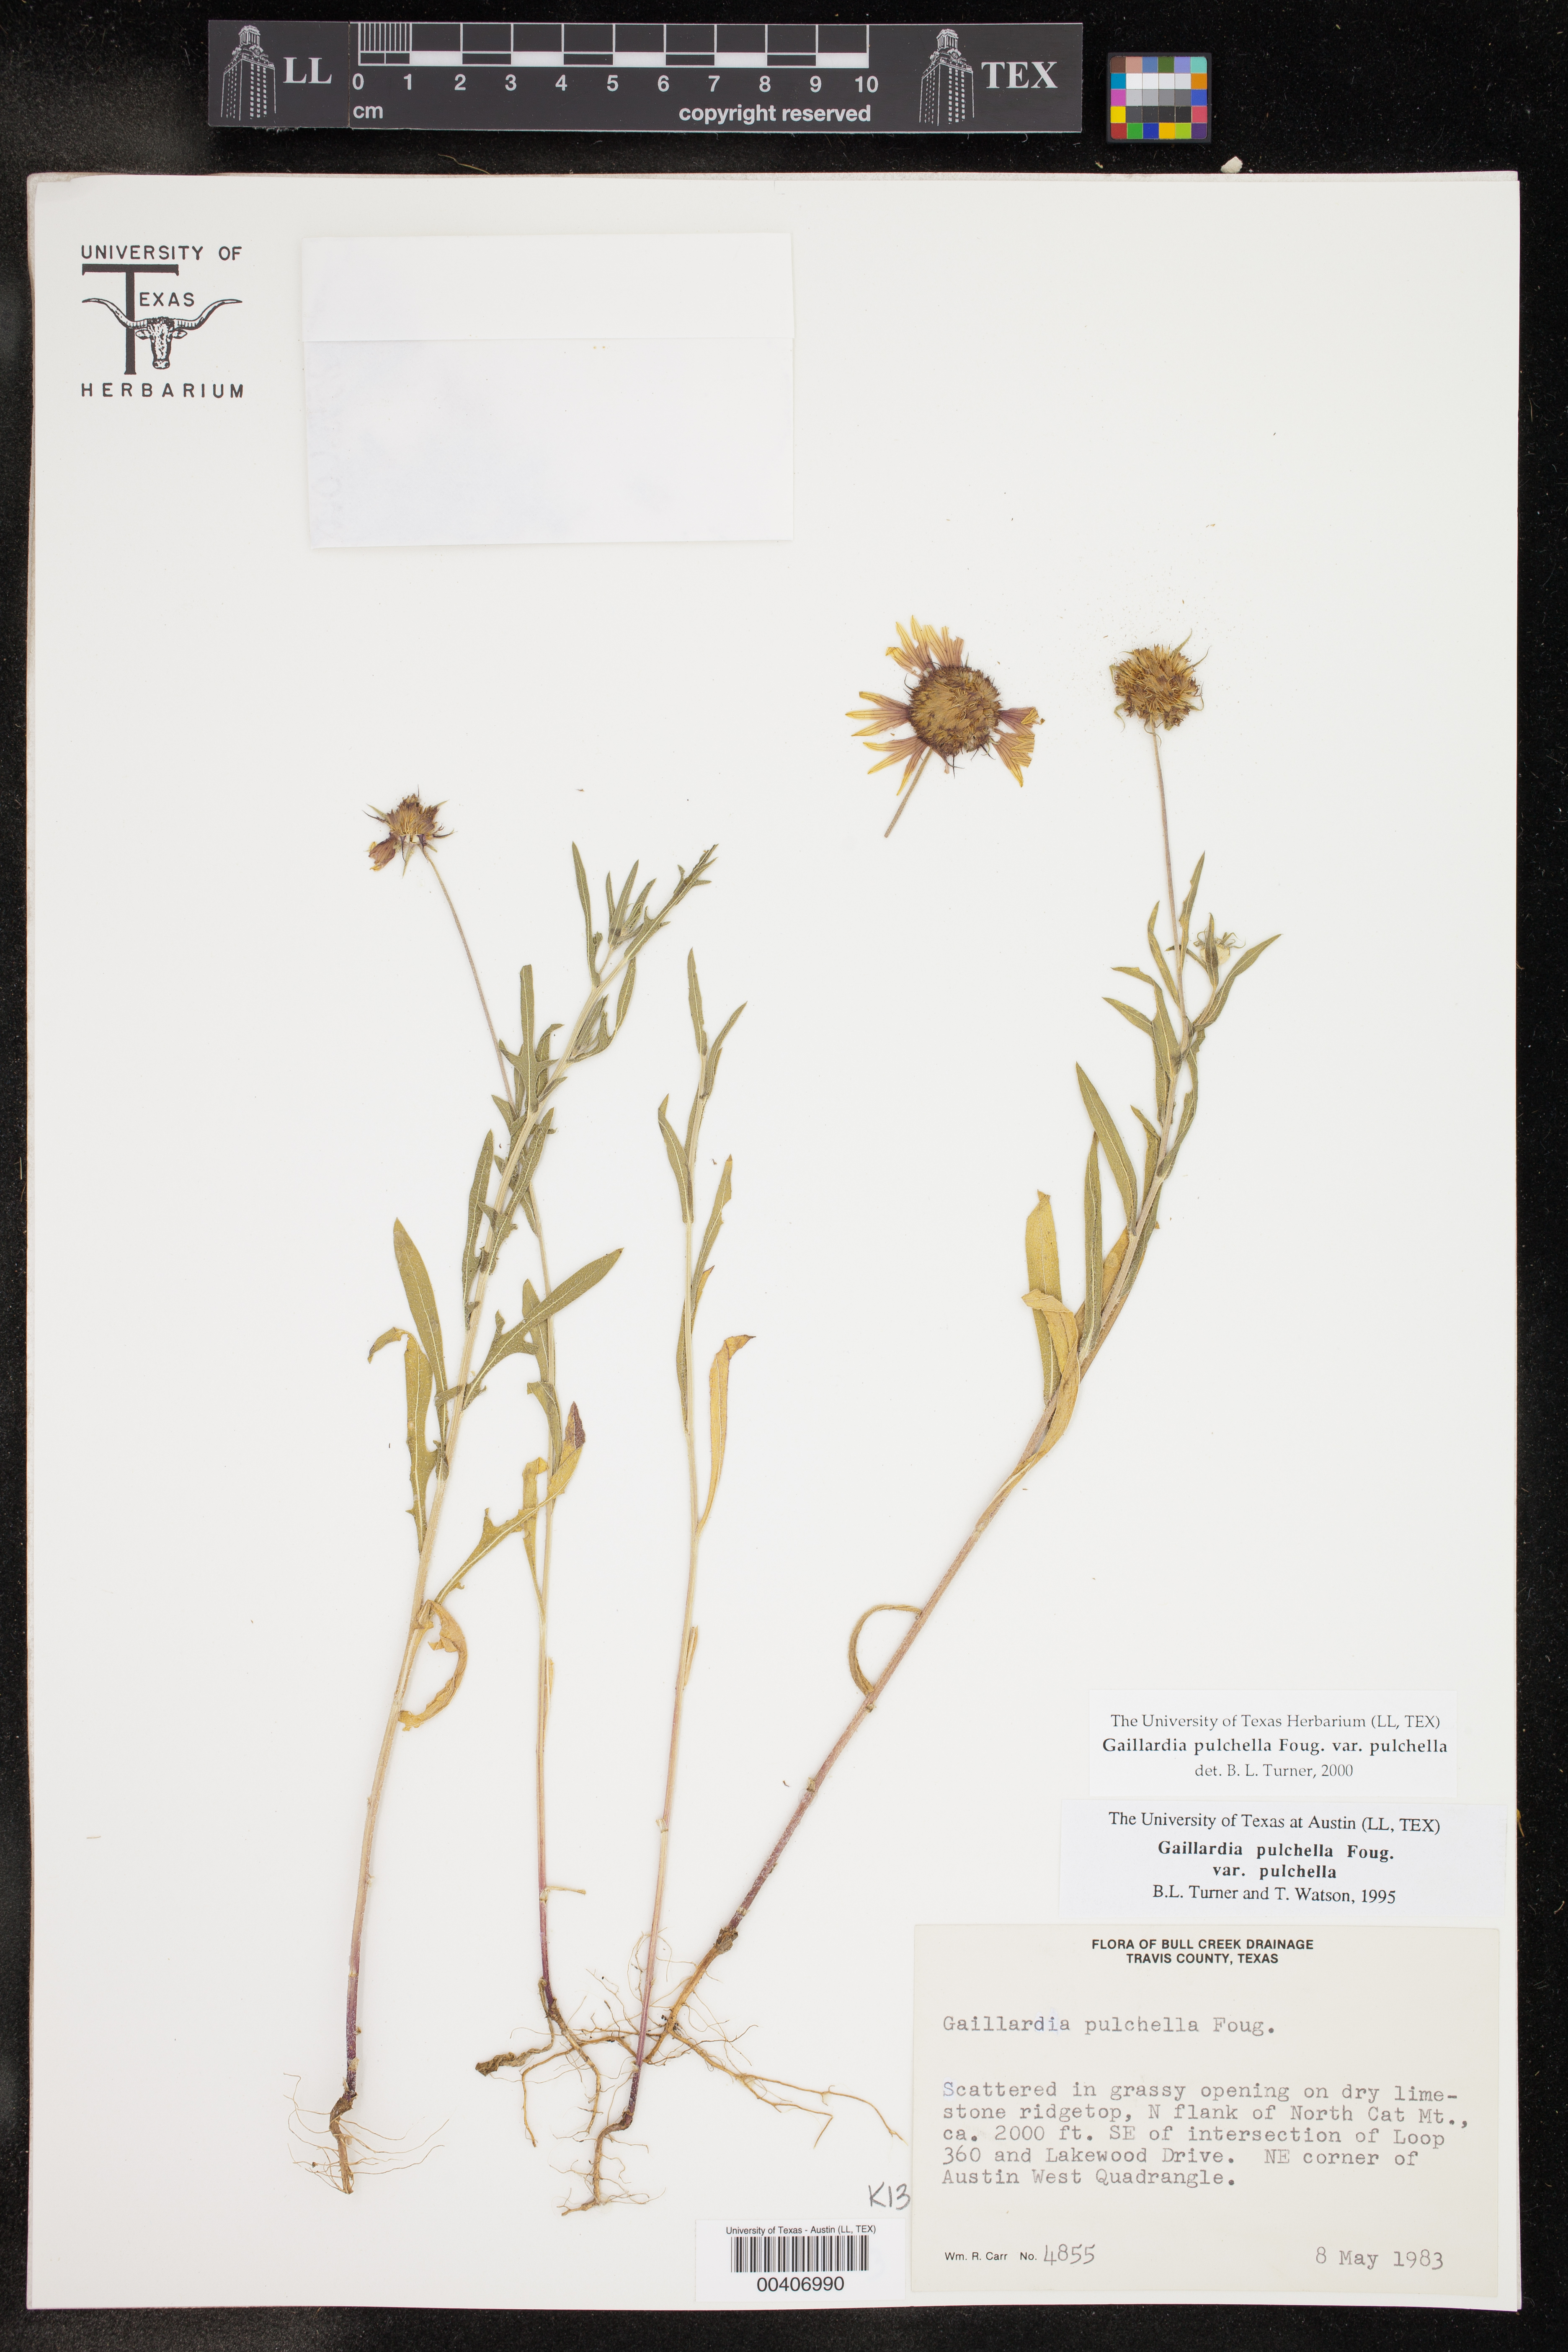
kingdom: Plantae
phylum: Tracheophyta
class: Magnoliopsida
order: Asterales
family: Asteraceae
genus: Gaillardia
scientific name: Gaillardia pulchella
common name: Firewheel
